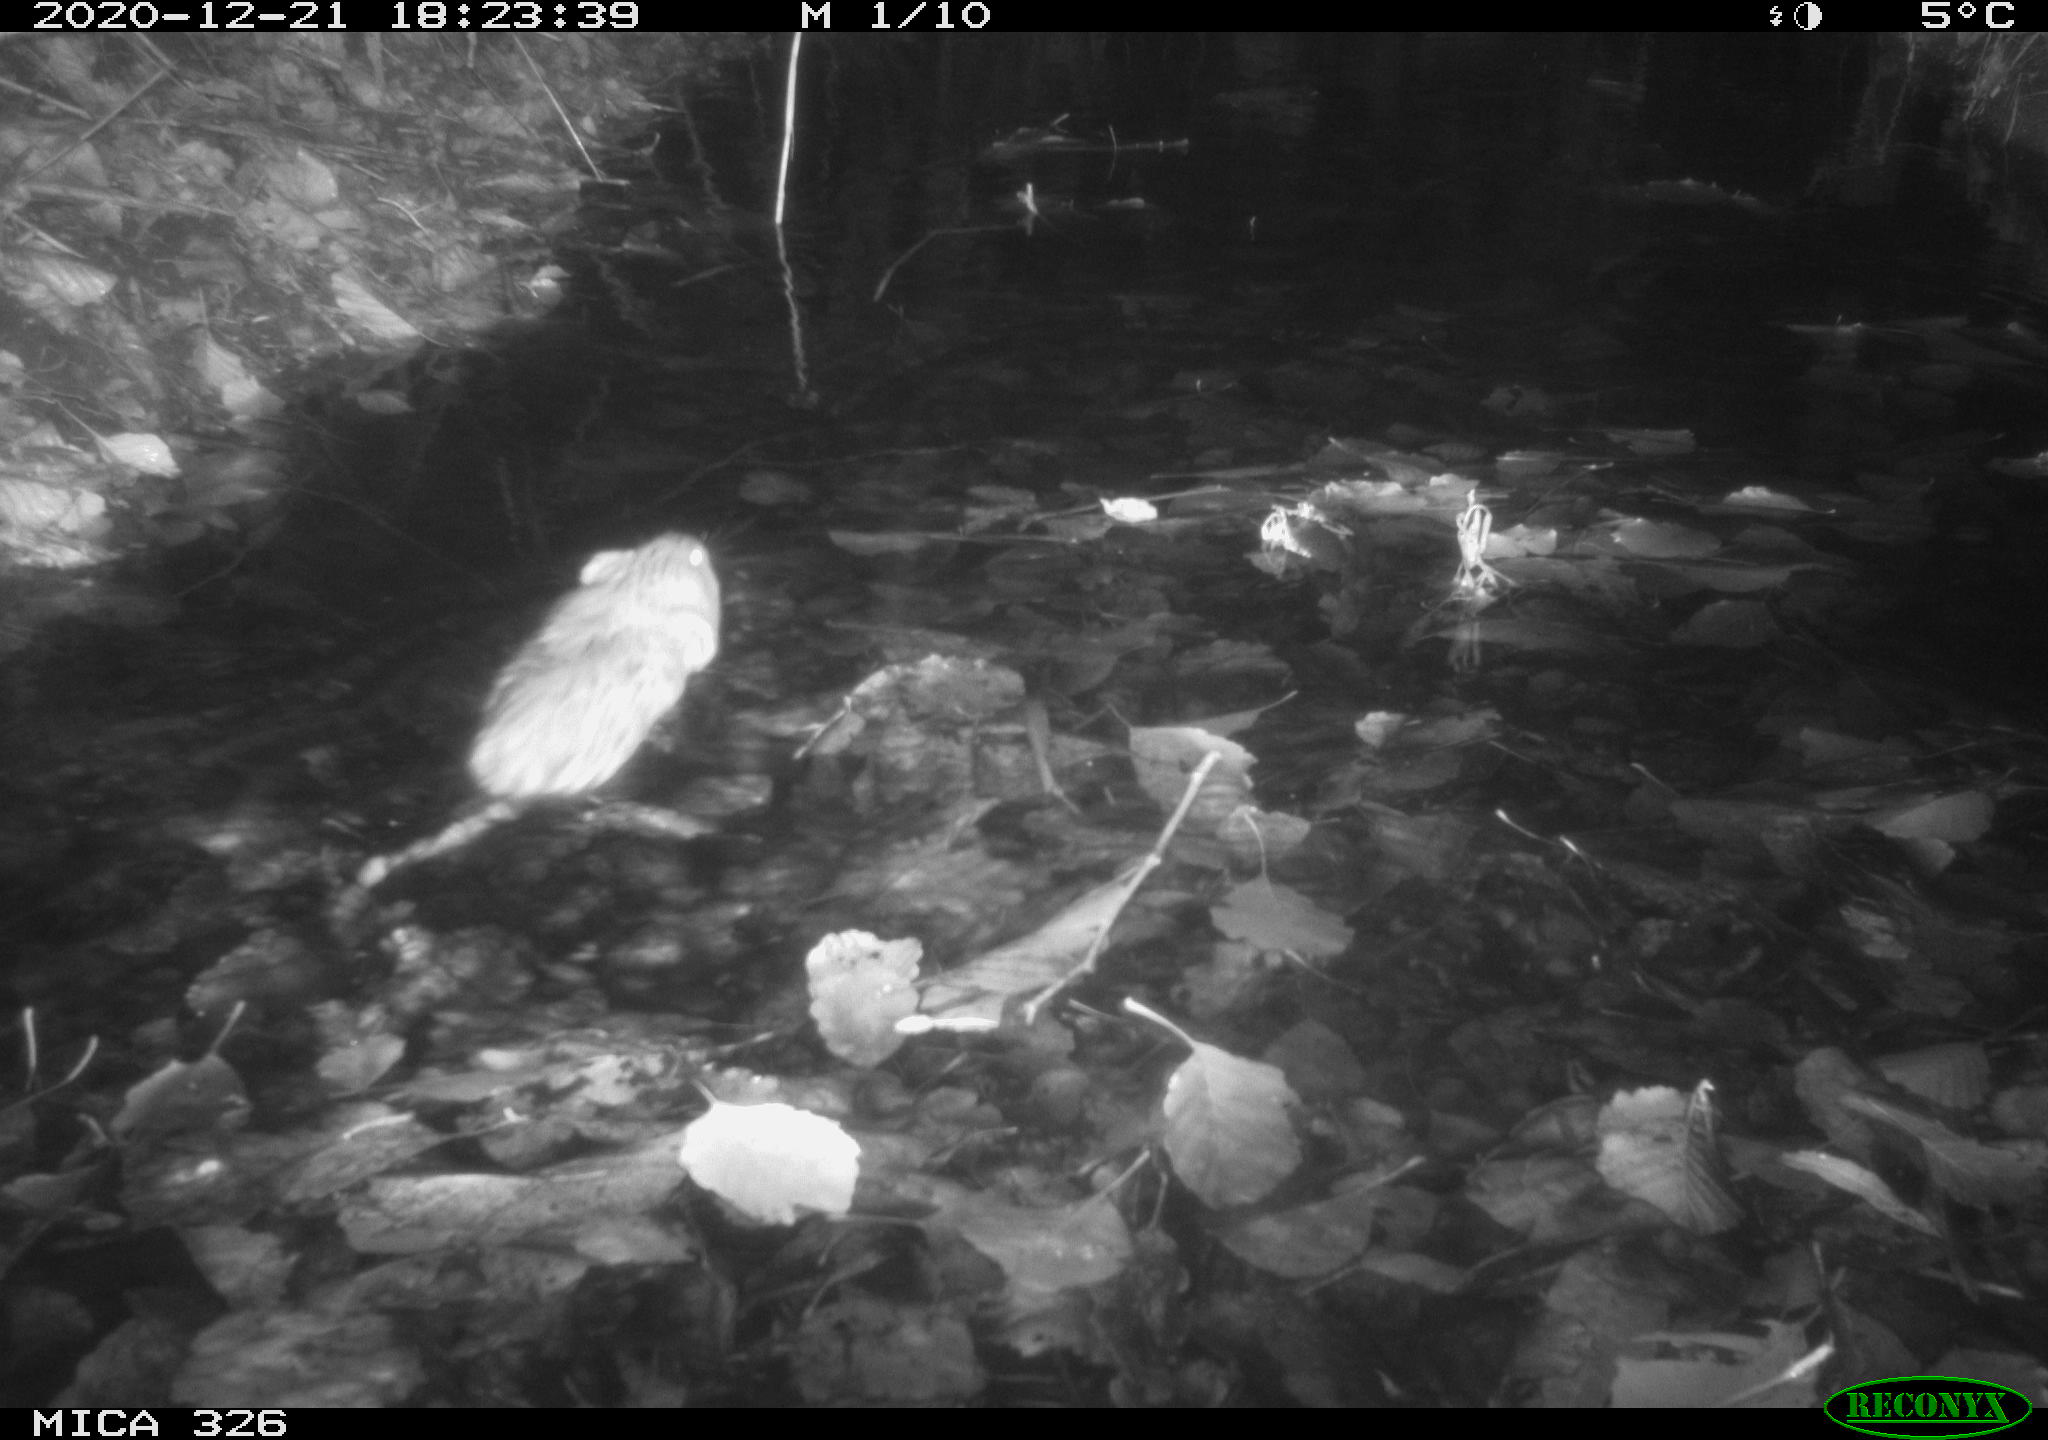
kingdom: Animalia
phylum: Chordata
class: Mammalia
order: Rodentia
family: Cricetidae
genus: Ondatra
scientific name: Ondatra zibethicus
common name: Muskrat
